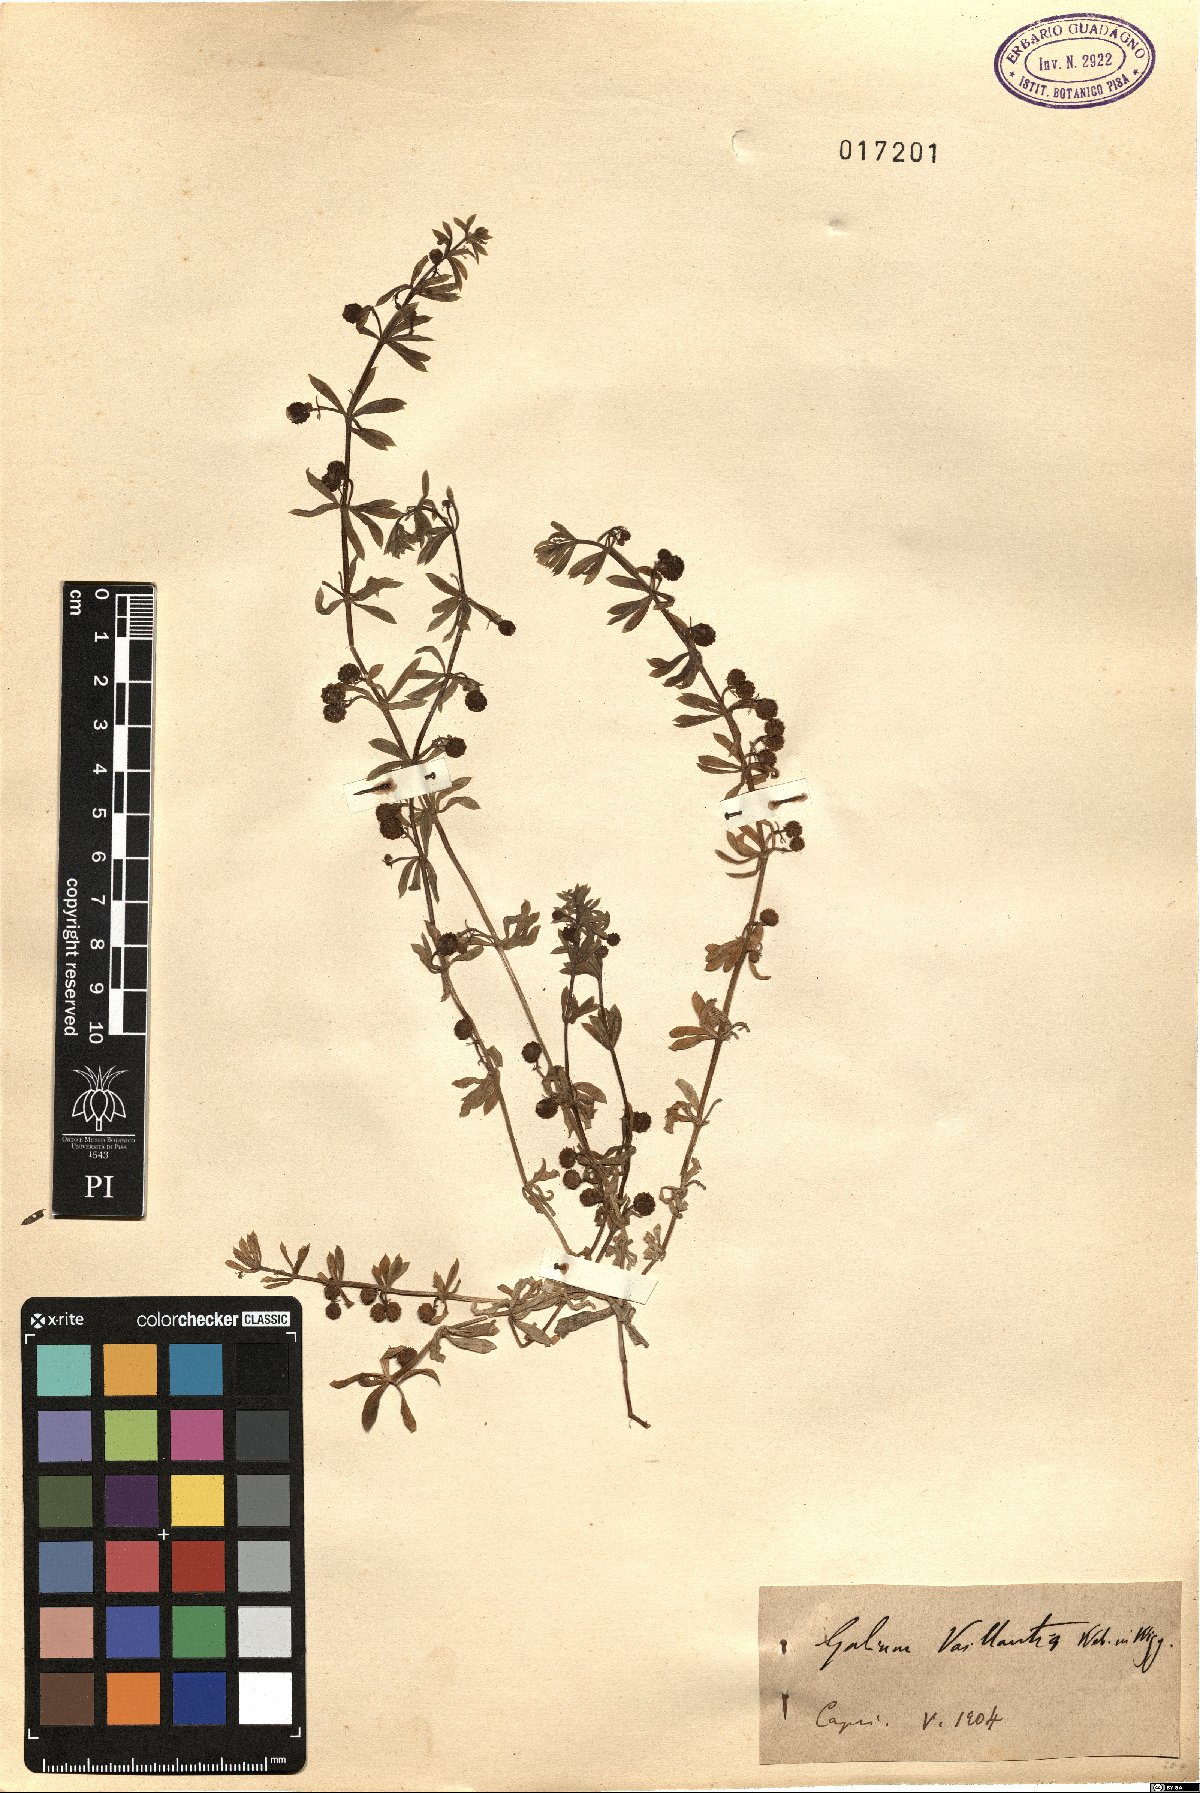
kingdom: Plantae
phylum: Tracheophyta
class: Magnoliopsida
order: Gentianales
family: Rubiaceae
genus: Galium
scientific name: Galium verrucosum
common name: Warty bedstraw
